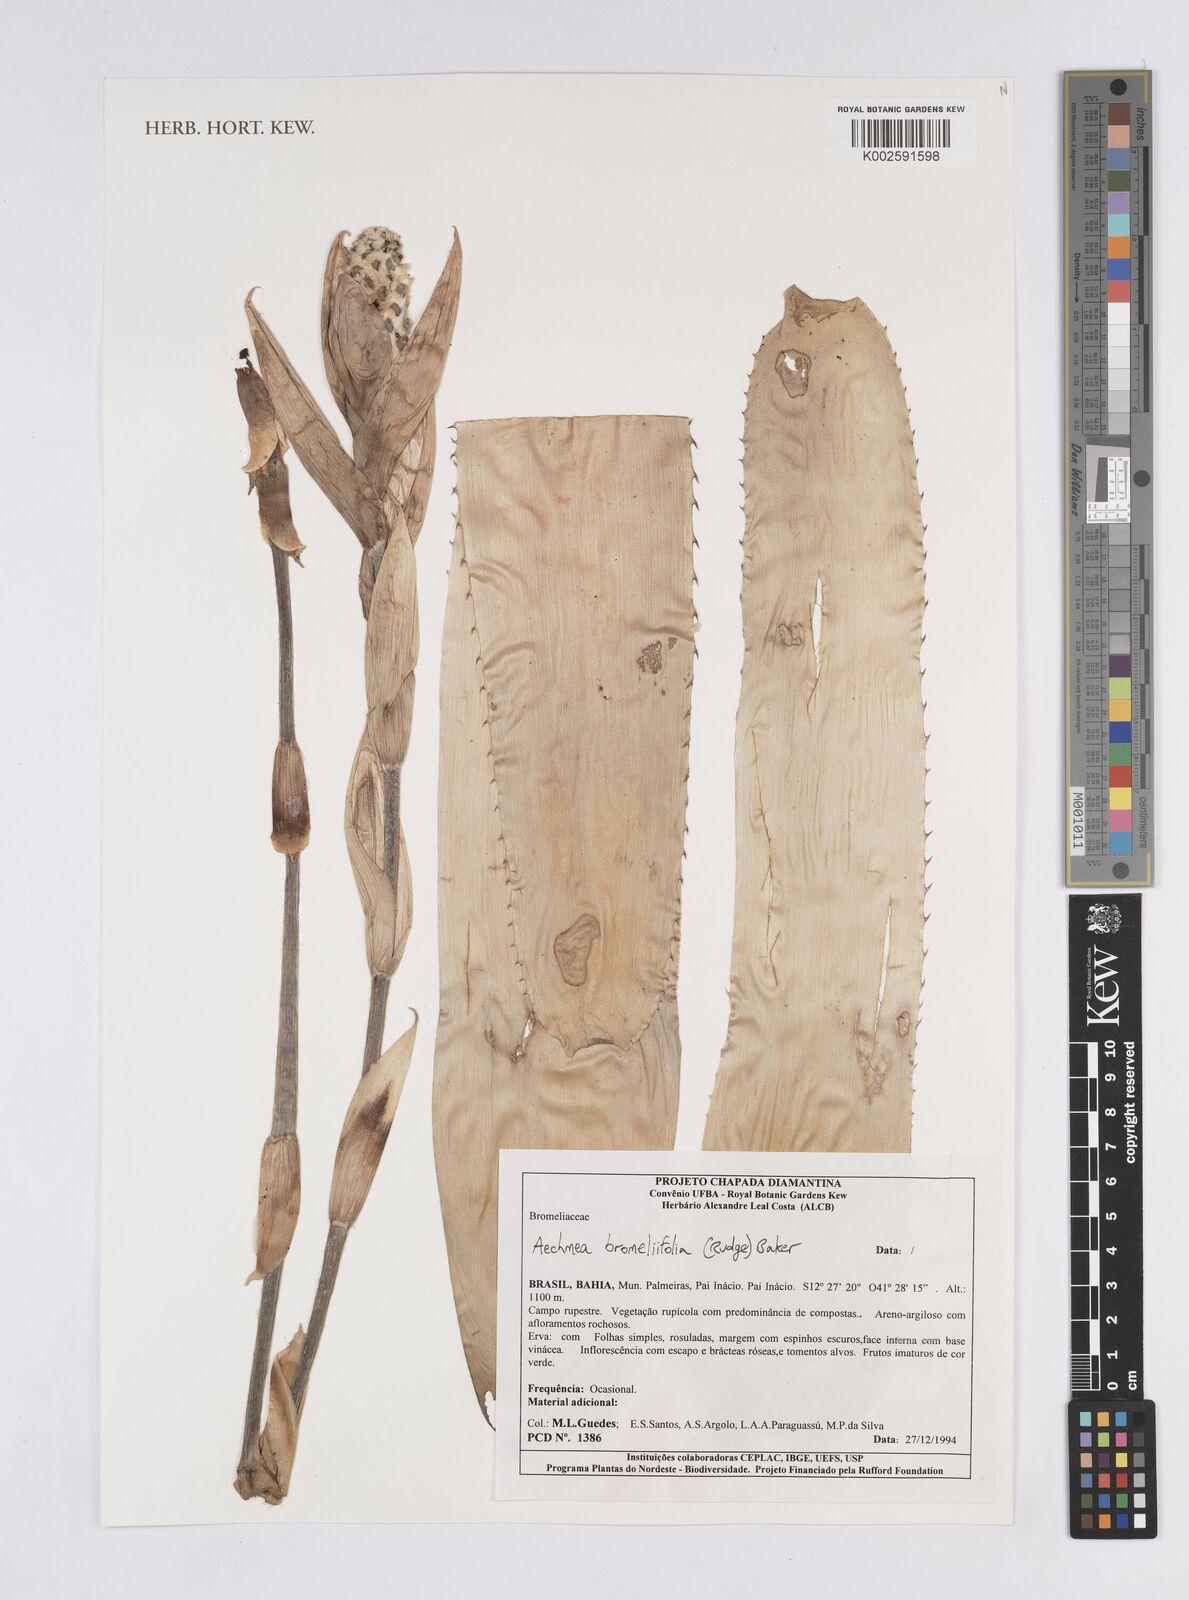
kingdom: Plantae
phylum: Tracheophyta
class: Liliopsida
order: Poales
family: Bromeliaceae
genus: Aechmea
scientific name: Aechmea bromeliifolia
